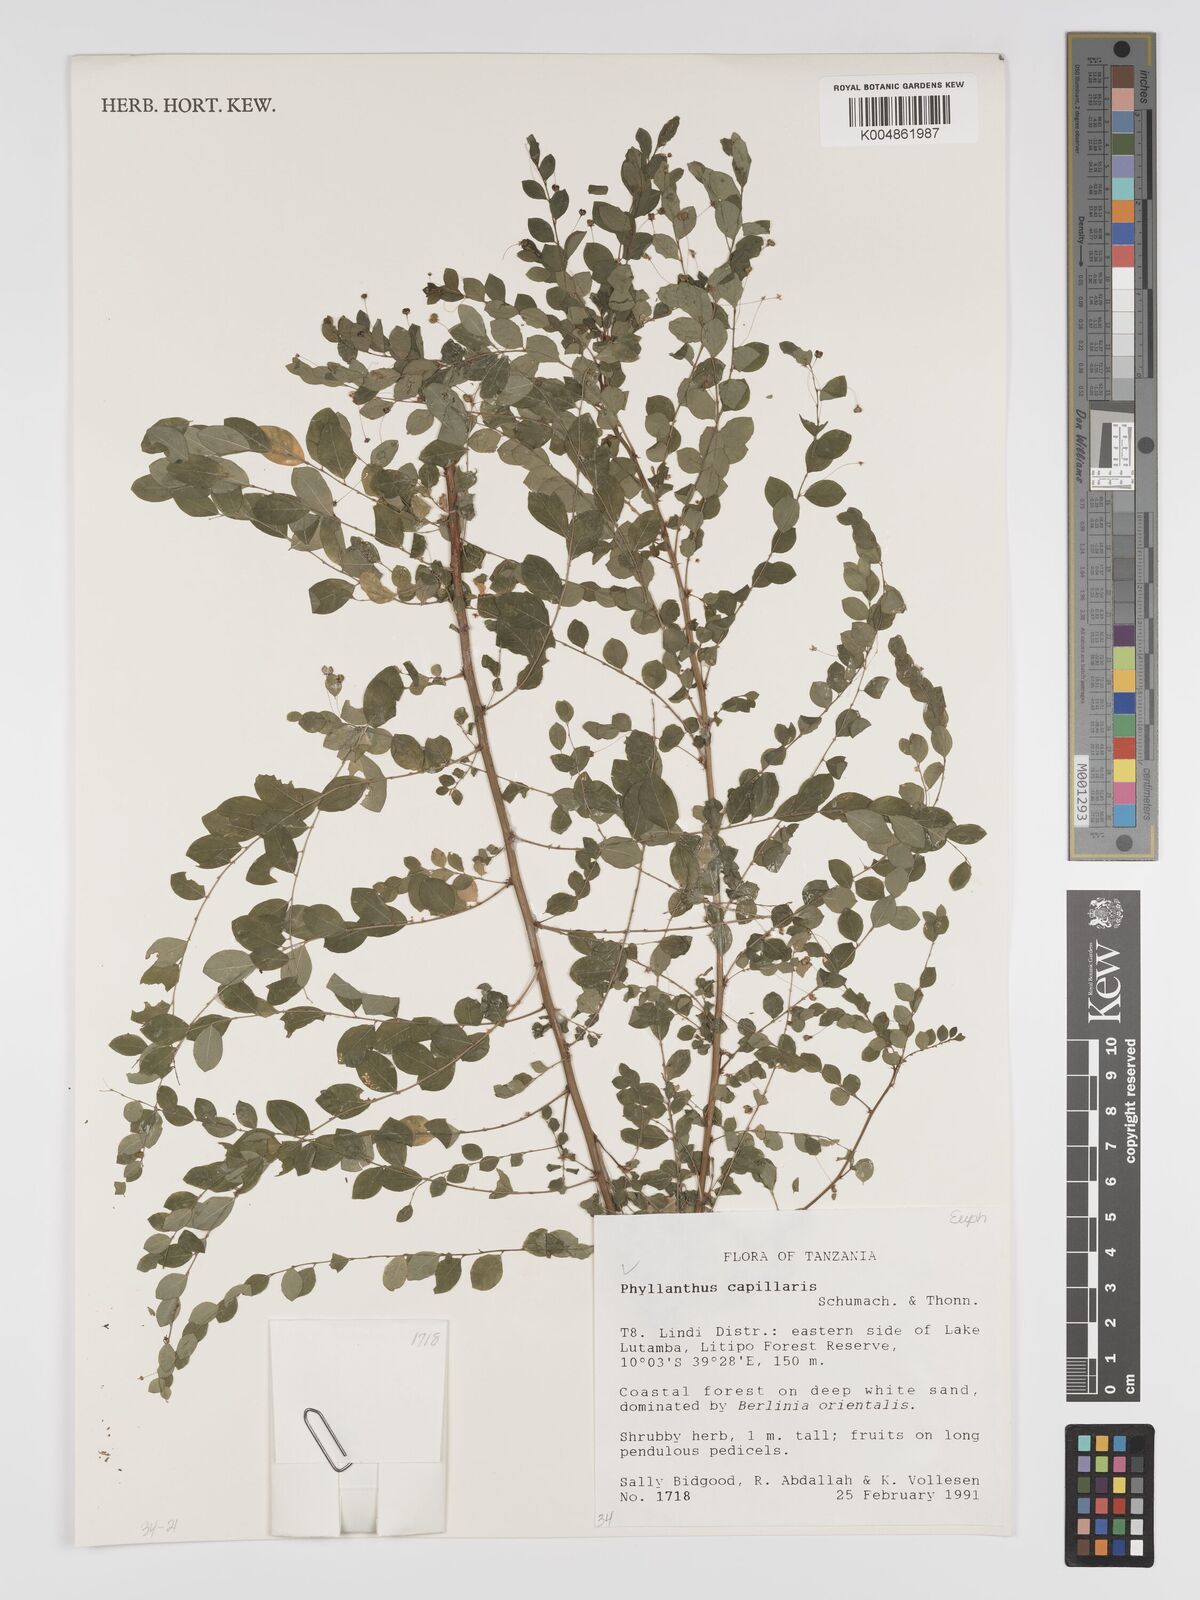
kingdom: Plantae
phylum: Tracheophyta
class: Magnoliopsida
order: Malpighiales
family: Phyllanthaceae
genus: Phyllanthus
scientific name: Phyllanthus nummulariifolius
